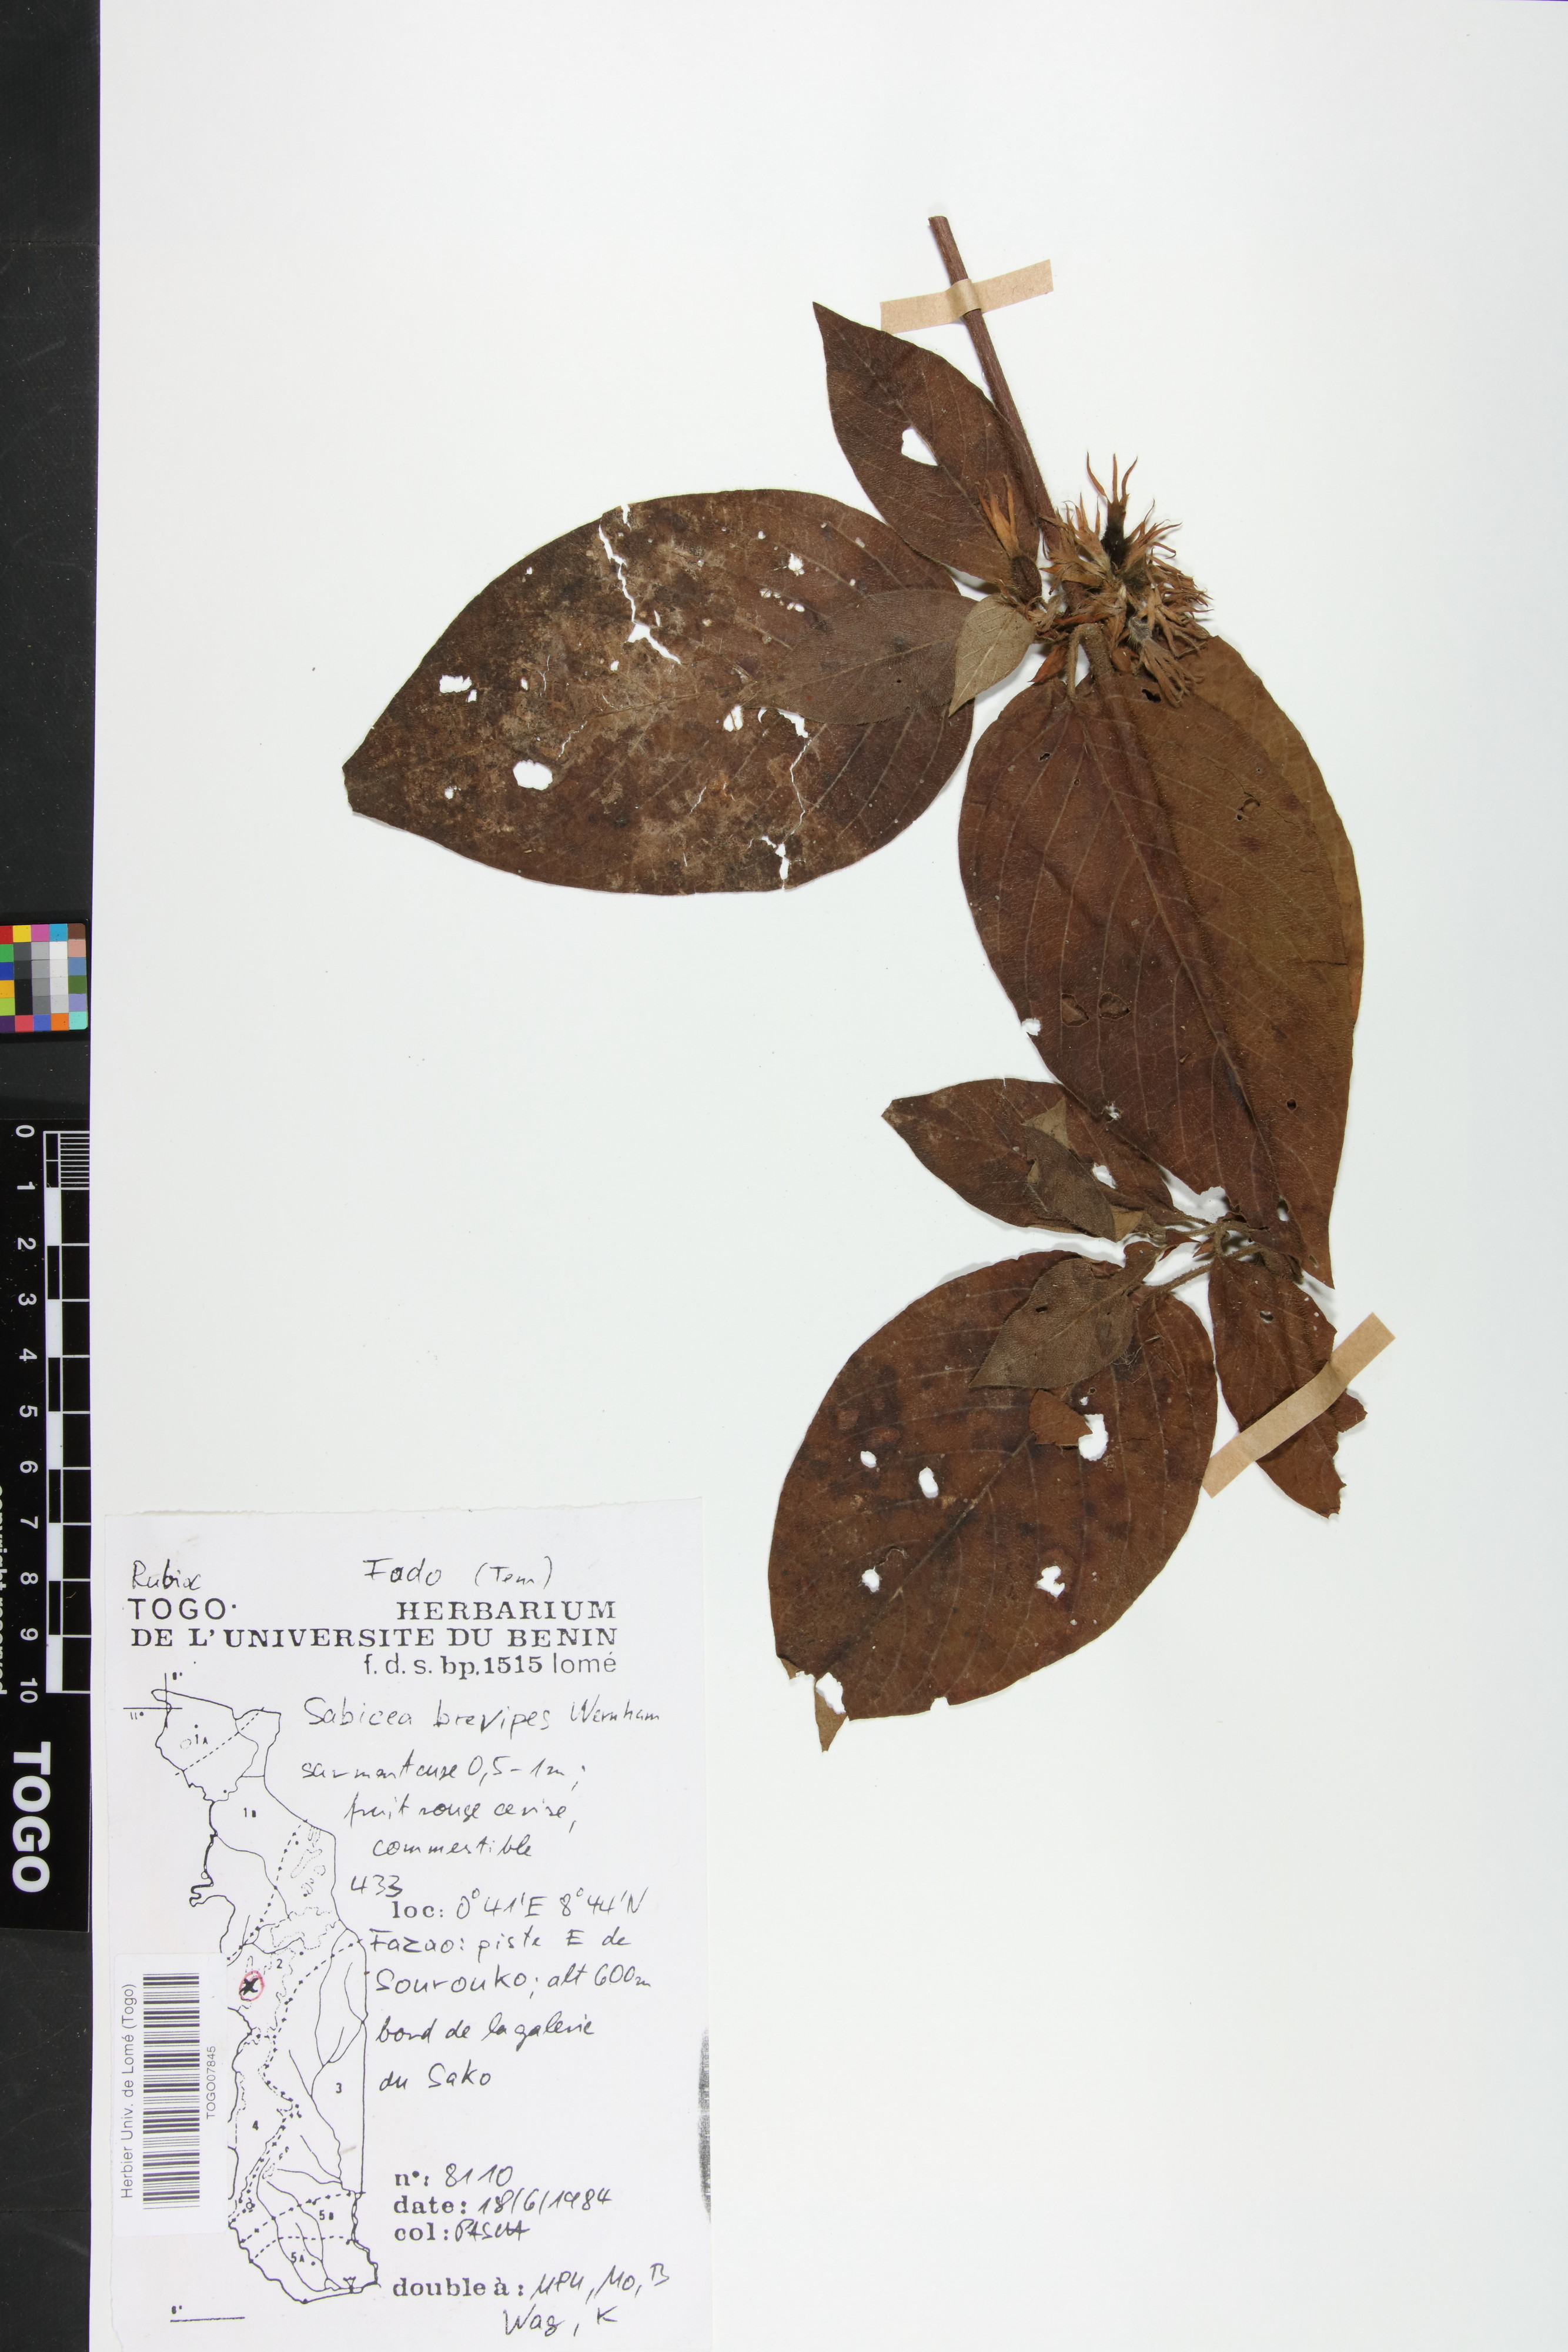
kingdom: Plantae
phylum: Tracheophyta
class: Magnoliopsida
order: Gentianales
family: Rubiaceae
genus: Sabicea
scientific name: Sabicea brevipes
